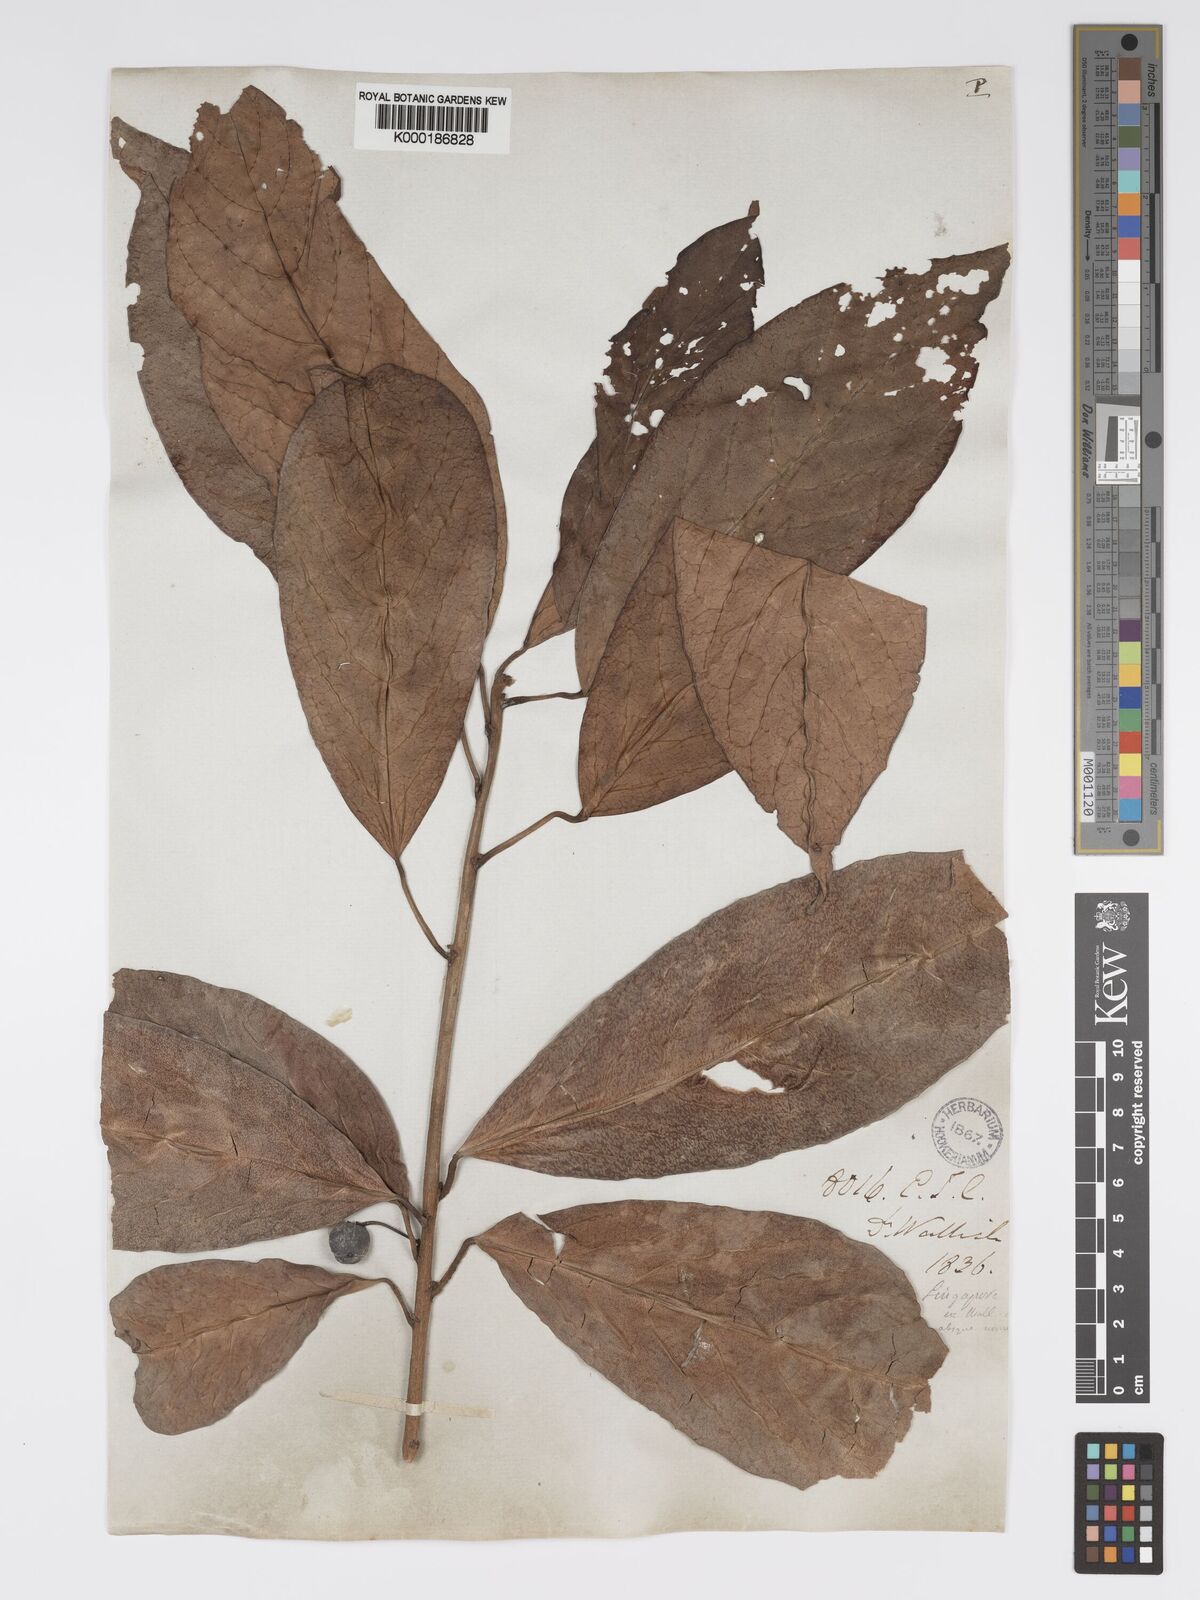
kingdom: Plantae
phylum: Tracheophyta
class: Magnoliopsida
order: Malpighiales
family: Phyllanthaceae
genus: Actephila
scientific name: Actephila
